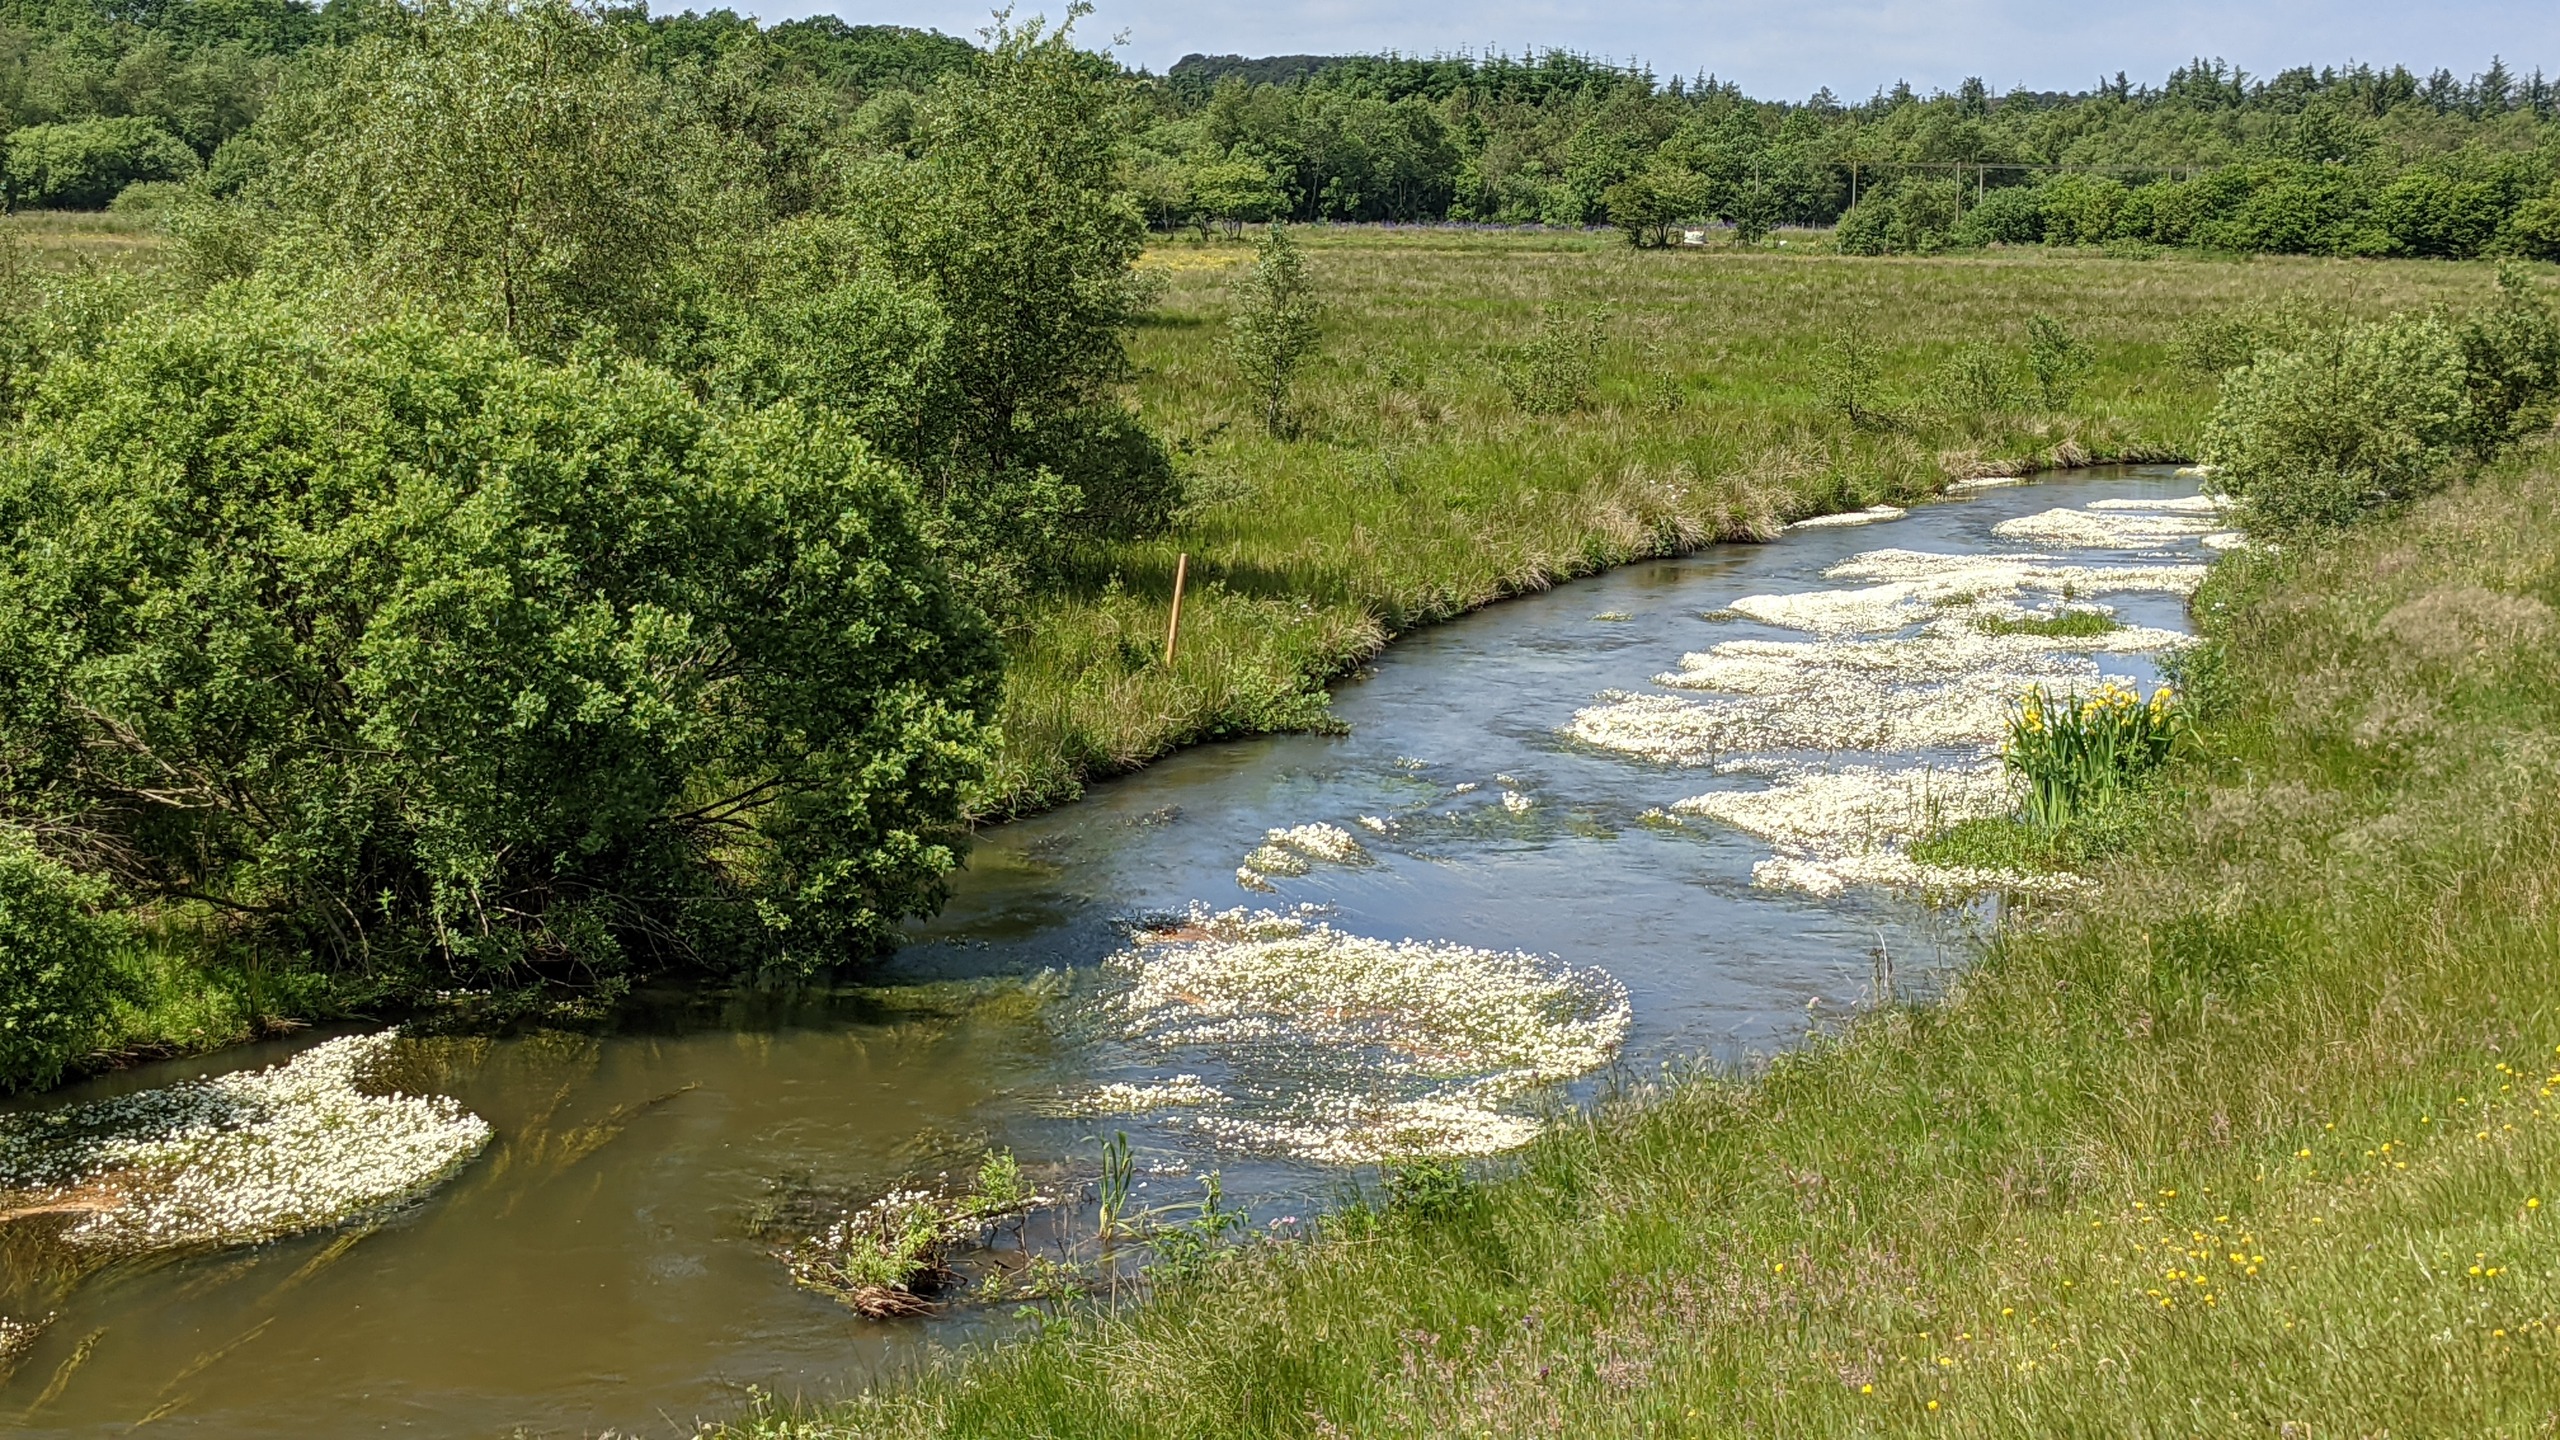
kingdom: Plantae
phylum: Tracheophyta
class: Magnoliopsida
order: Ranunculales
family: Ranunculaceae
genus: Ranunculus
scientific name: Ranunculus
